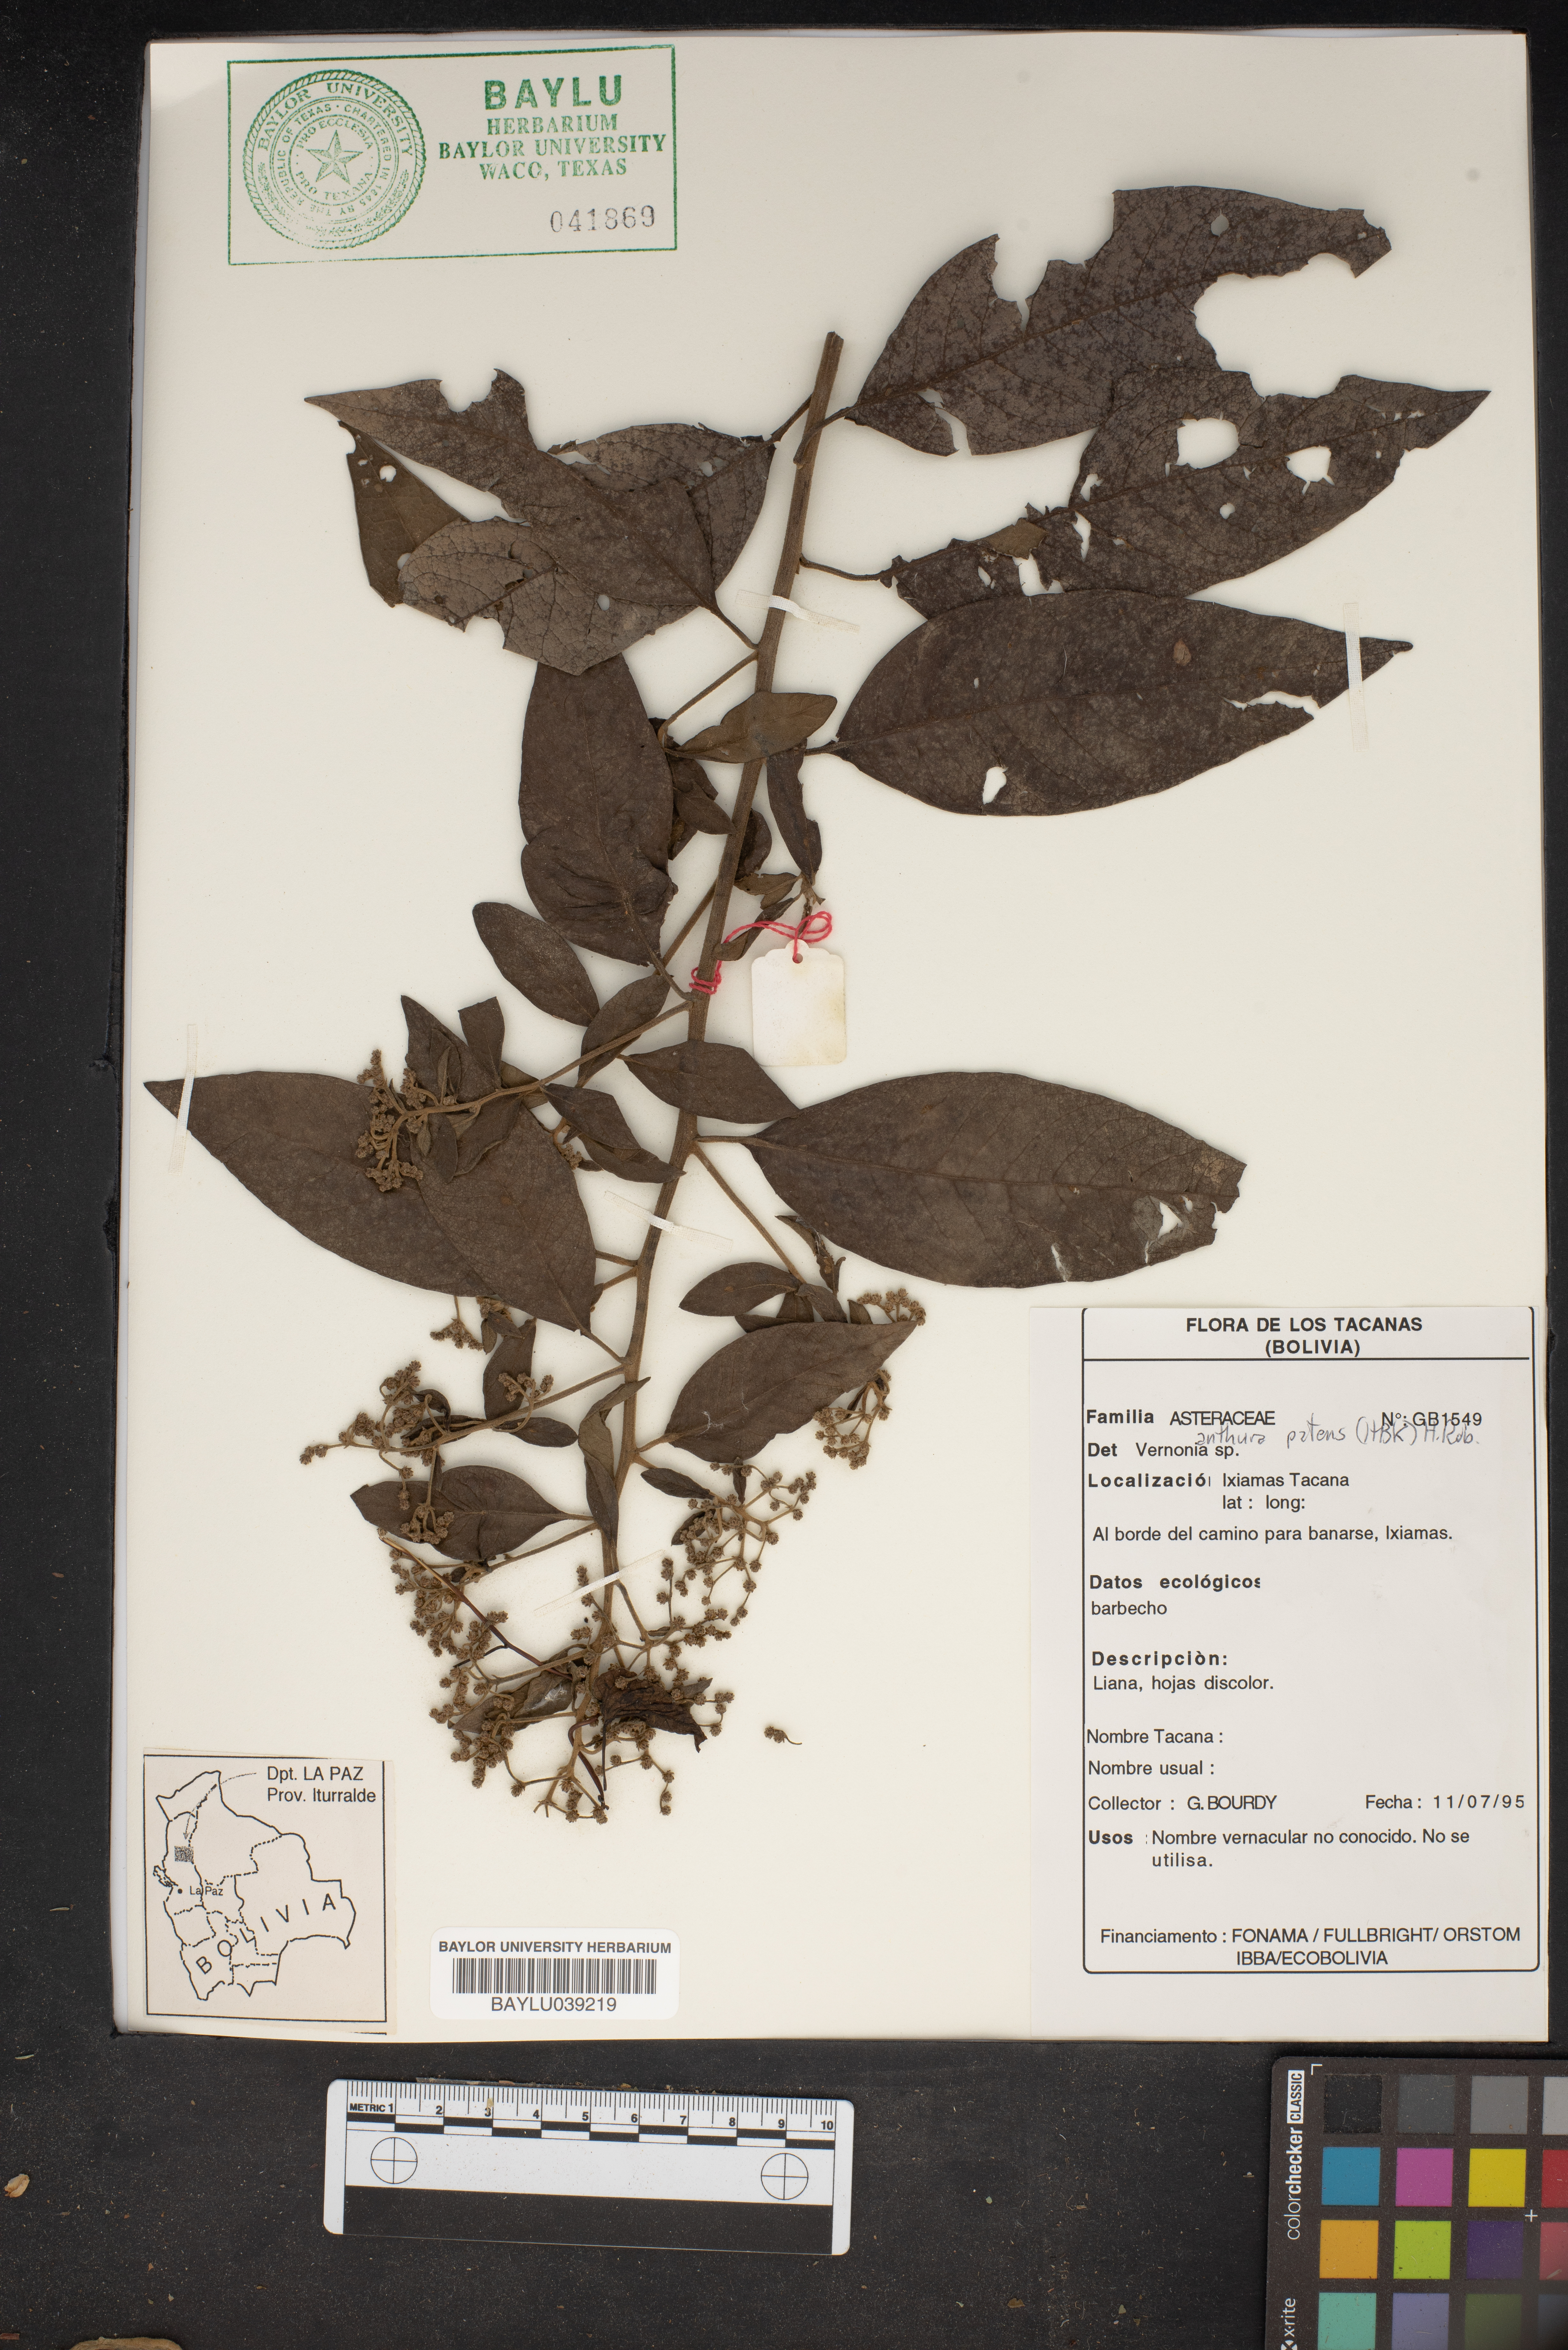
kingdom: Plantae
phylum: Tracheophyta
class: Liliopsida
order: Alismatales
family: Araceae
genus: Anthurium
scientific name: Anthurium patens
